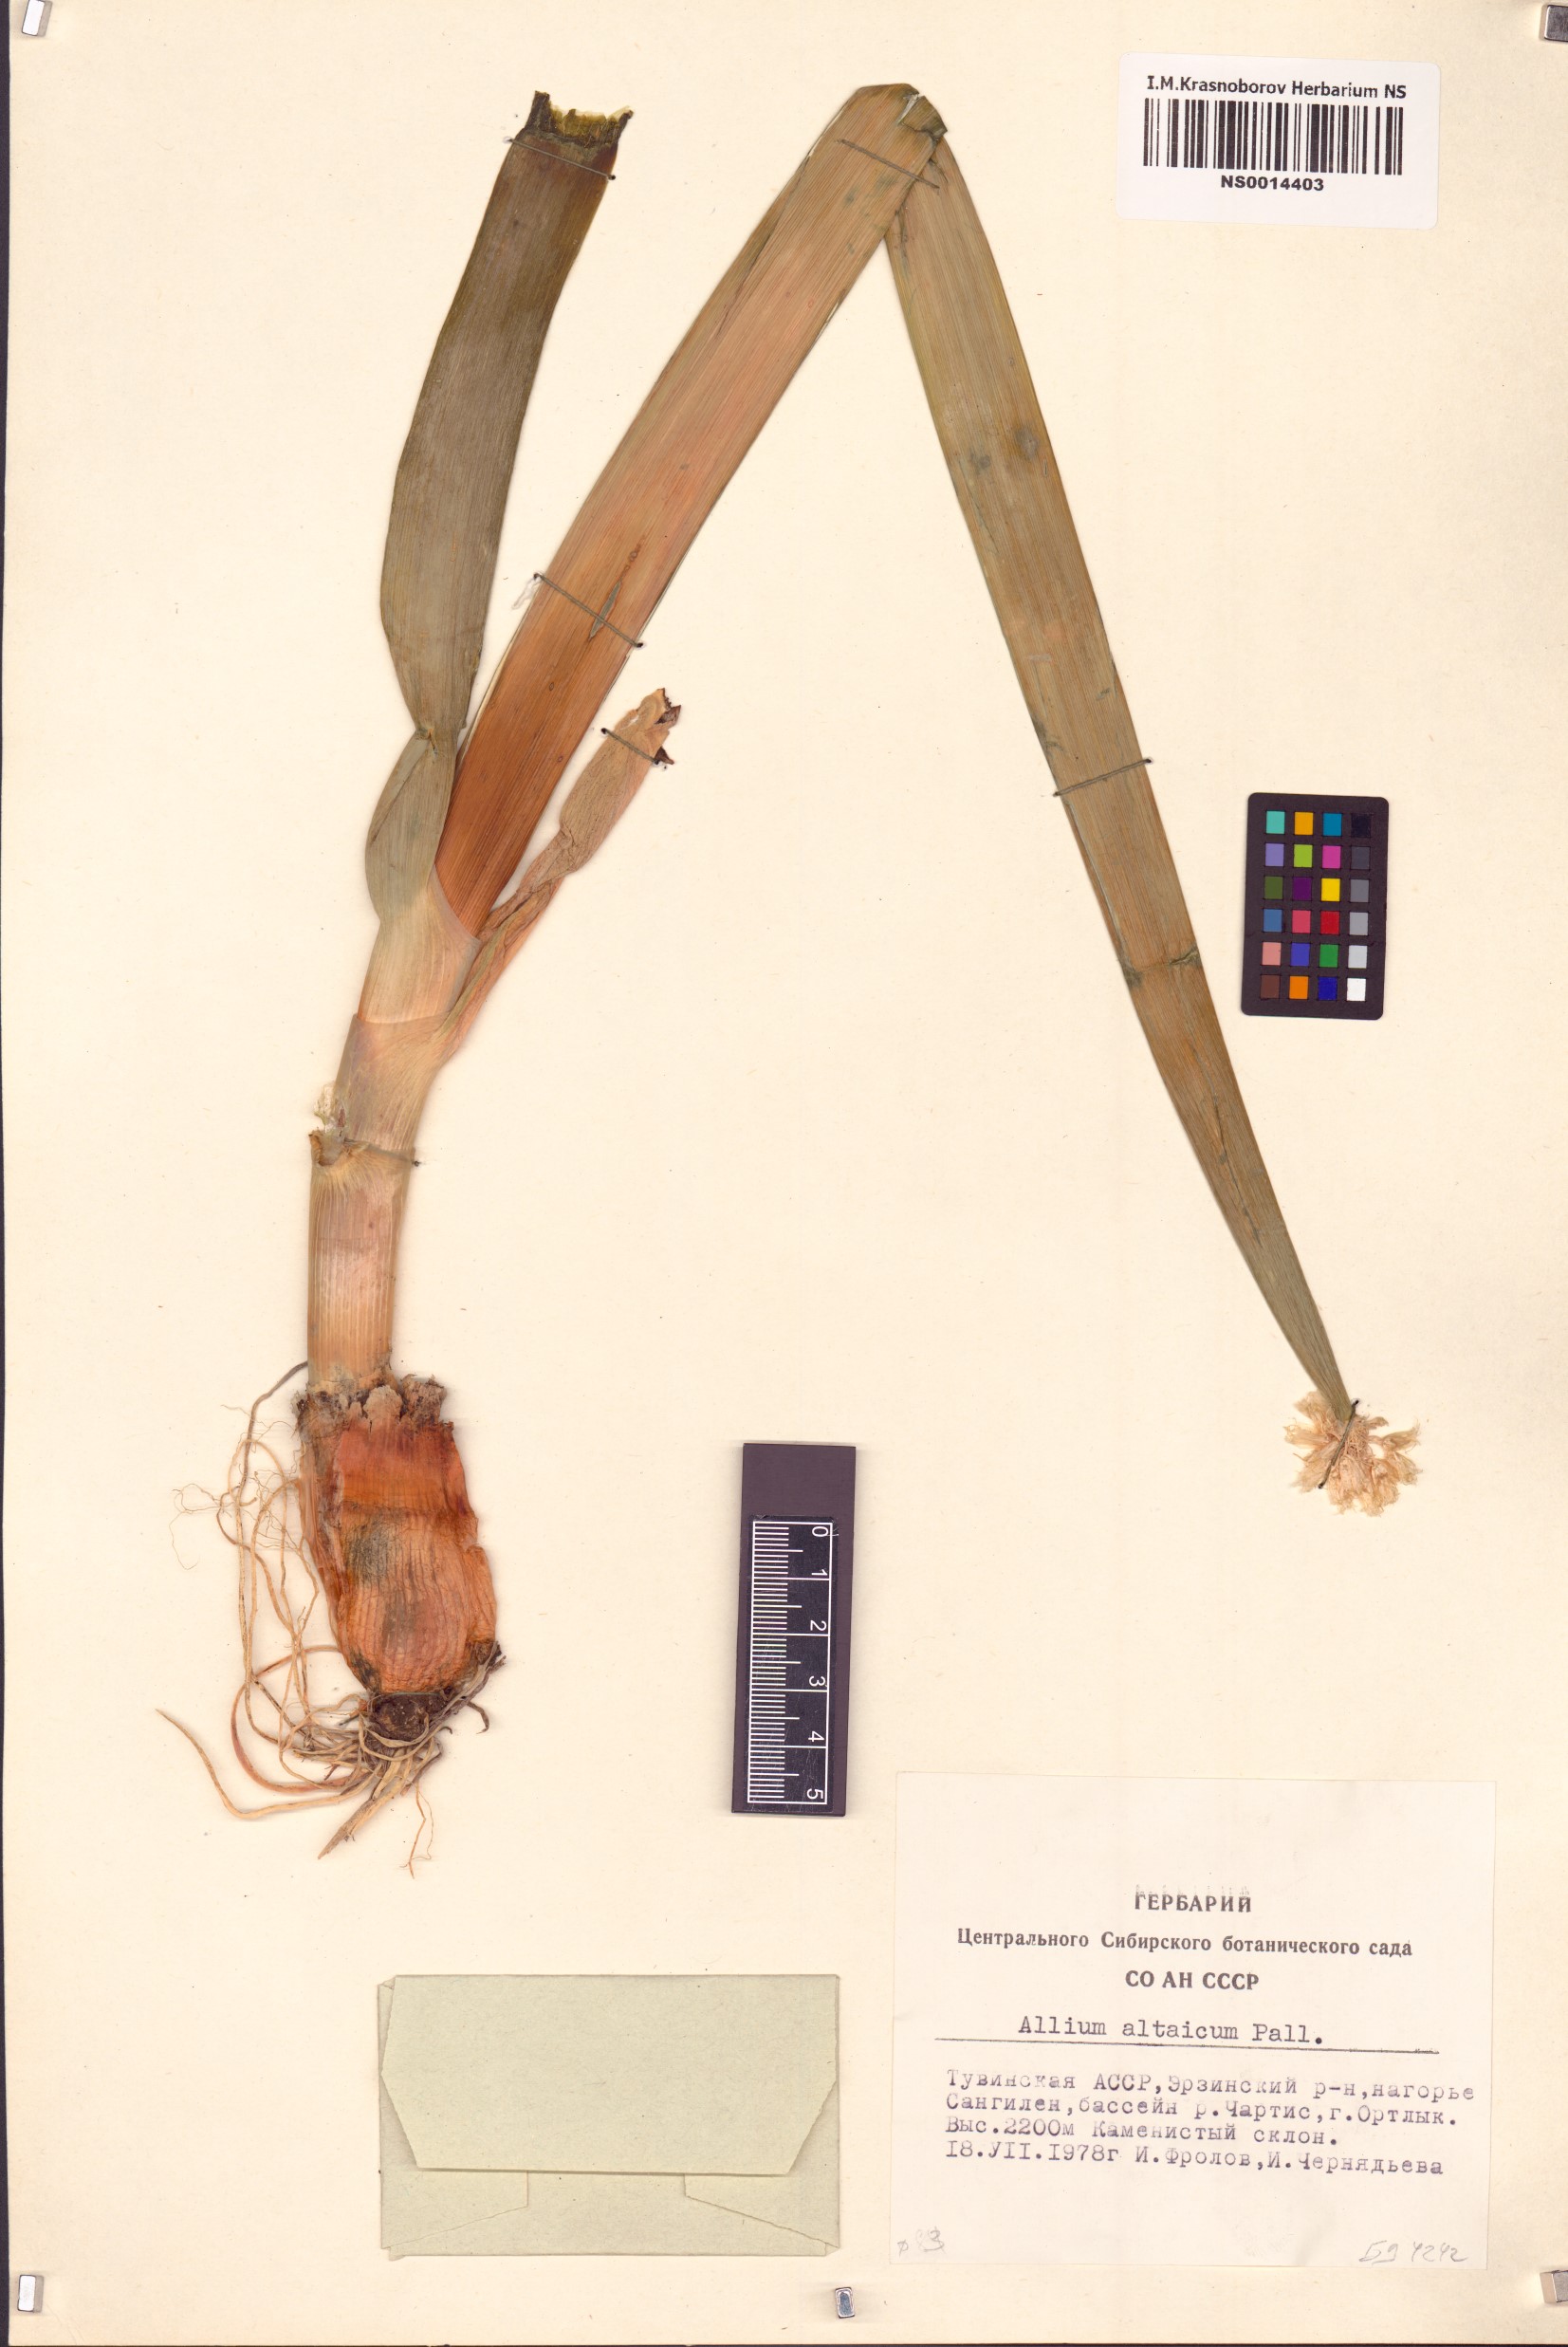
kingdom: Plantae
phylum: Tracheophyta
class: Liliopsida
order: Asparagales
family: Amaryllidaceae
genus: Allium
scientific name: Allium altaicum
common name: Altai onion
